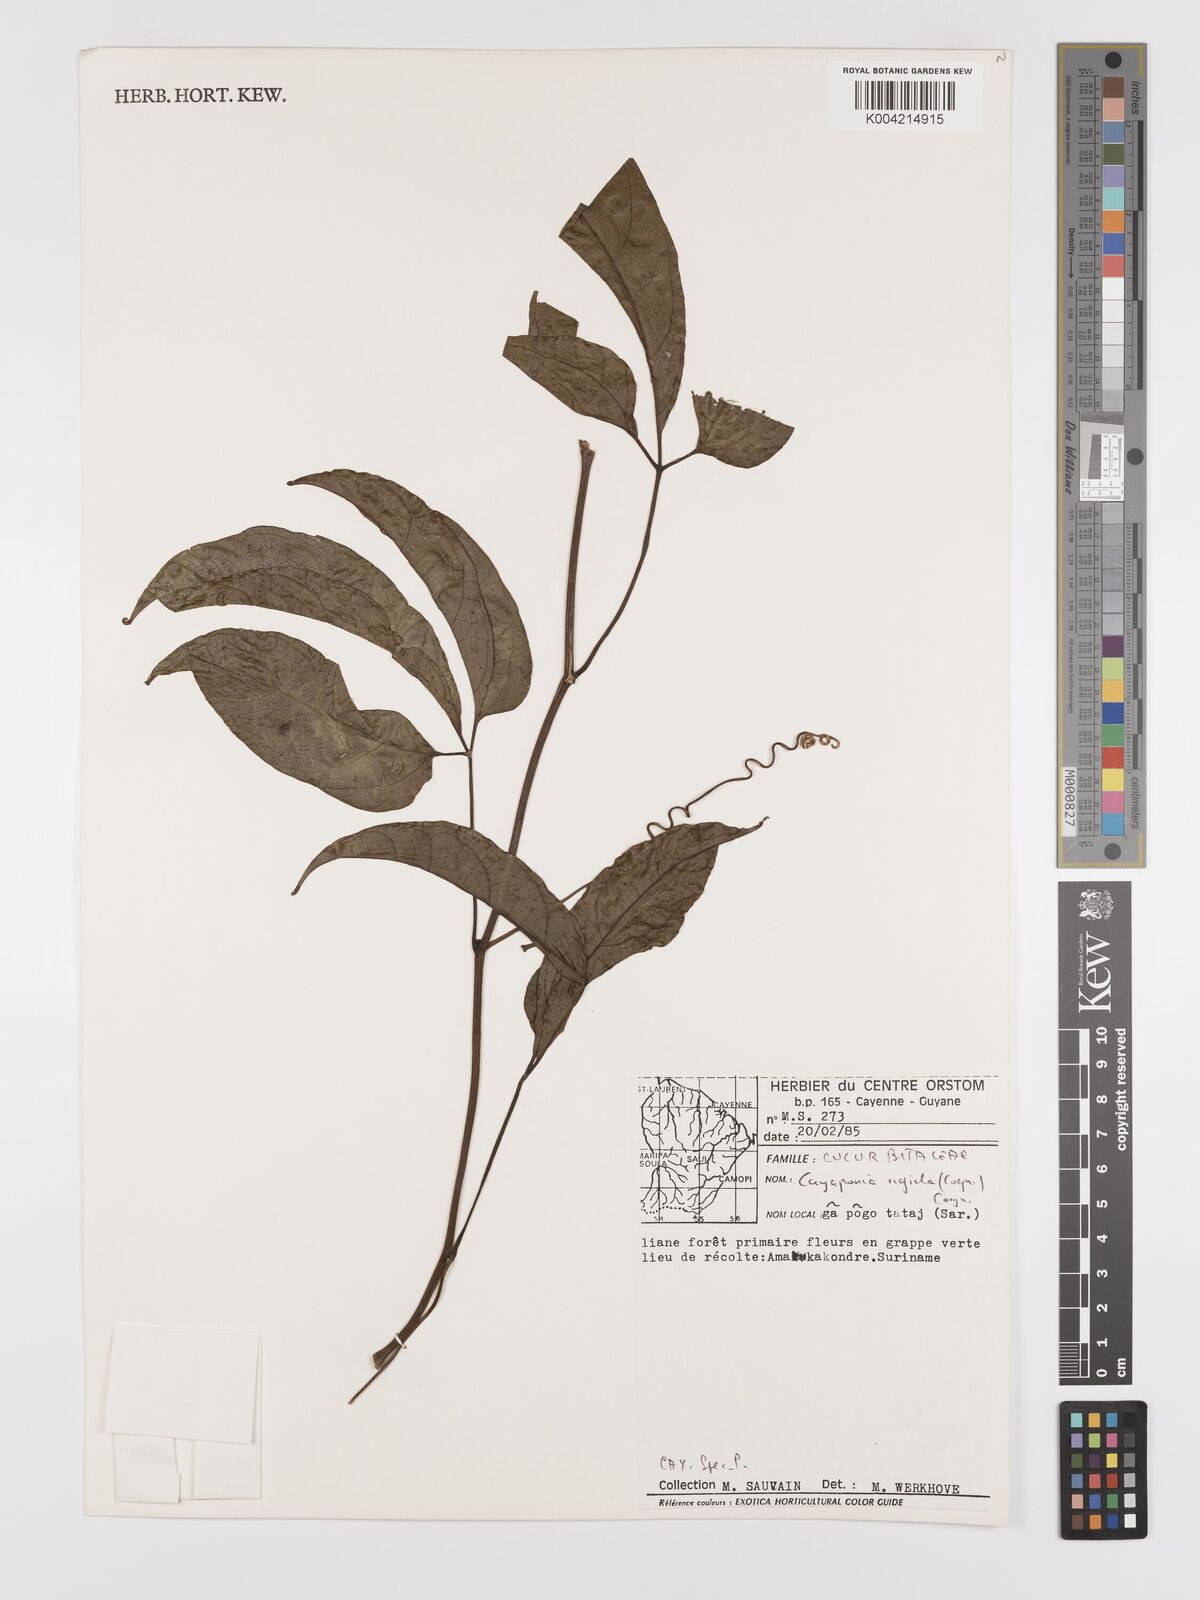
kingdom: Plantae
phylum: Tracheophyta
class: Magnoliopsida
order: Cucurbitales
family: Cucurbitaceae
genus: Cayaponia
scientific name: Cayaponia rigida
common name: Boskomkommer
